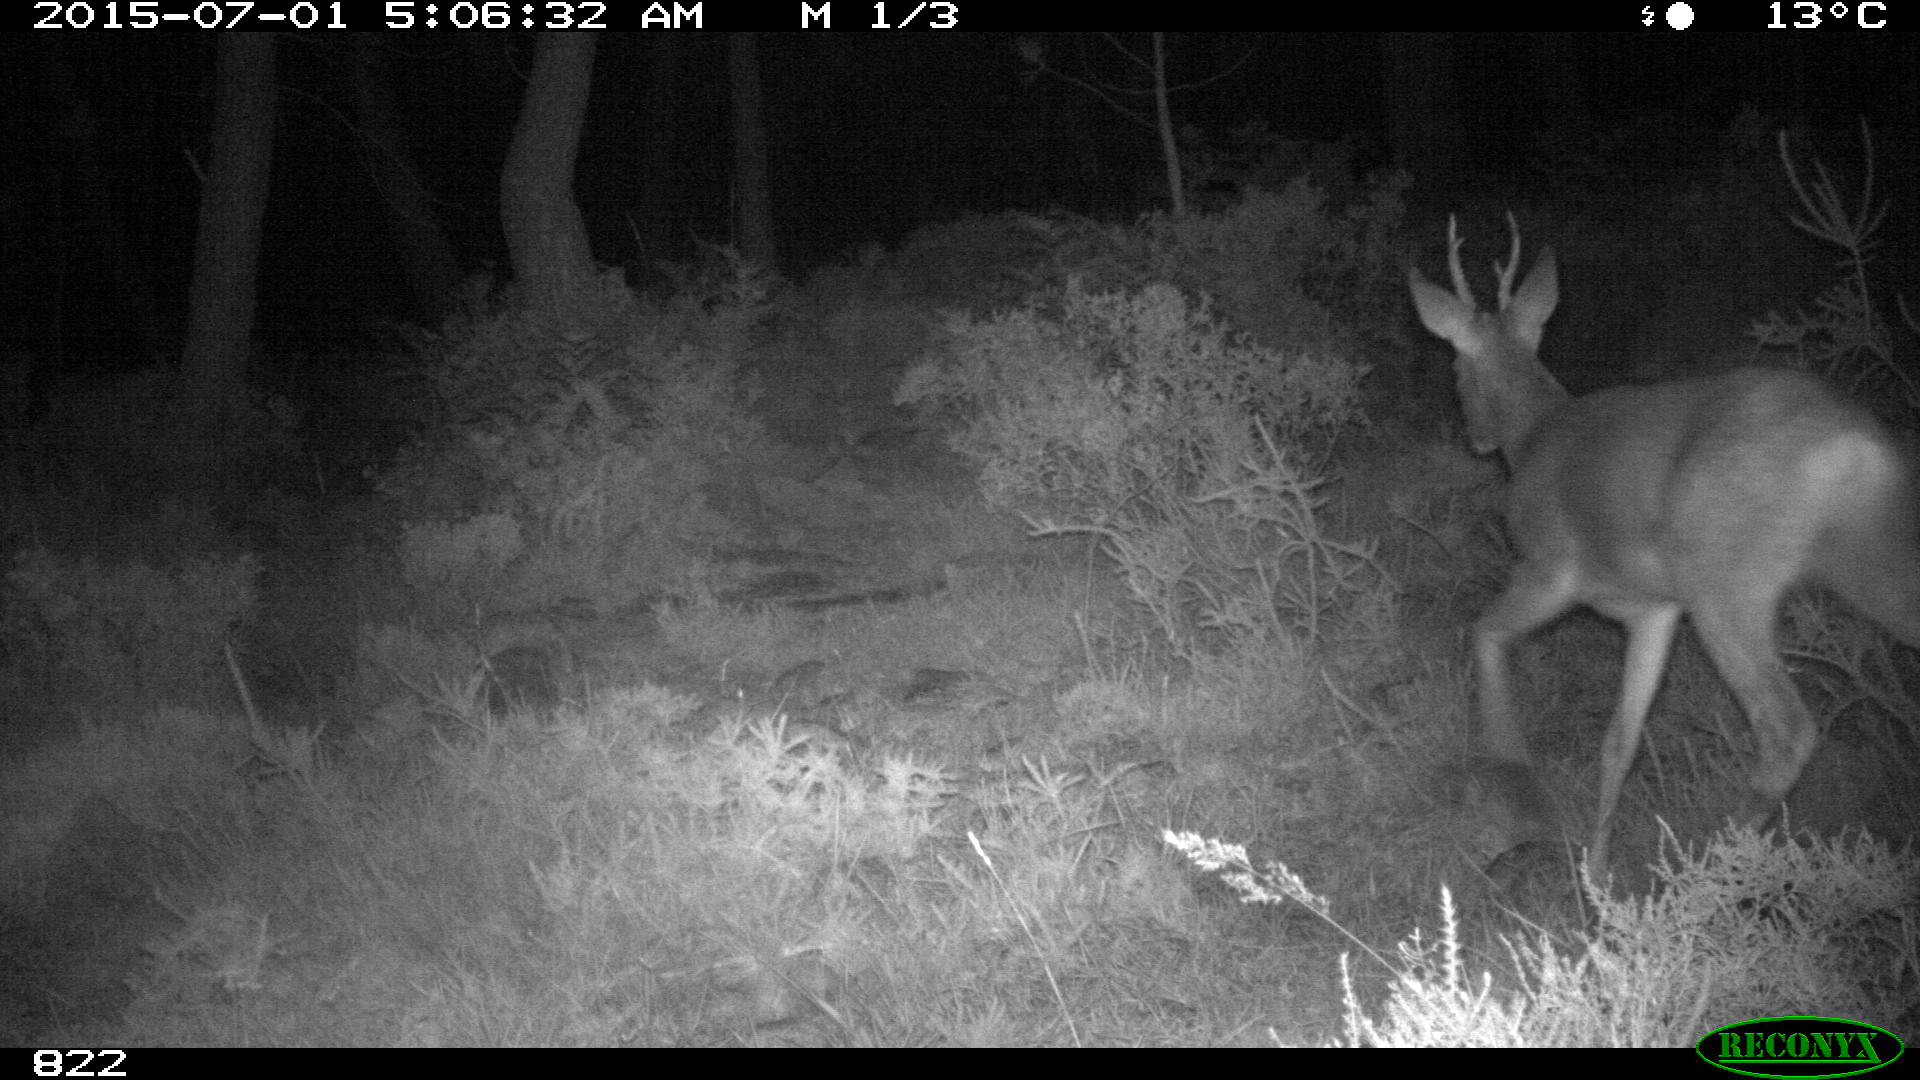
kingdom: Animalia
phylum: Chordata
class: Mammalia
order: Artiodactyla
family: Cervidae
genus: Capreolus
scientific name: Capreolus capreolus
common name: Western roe deer
